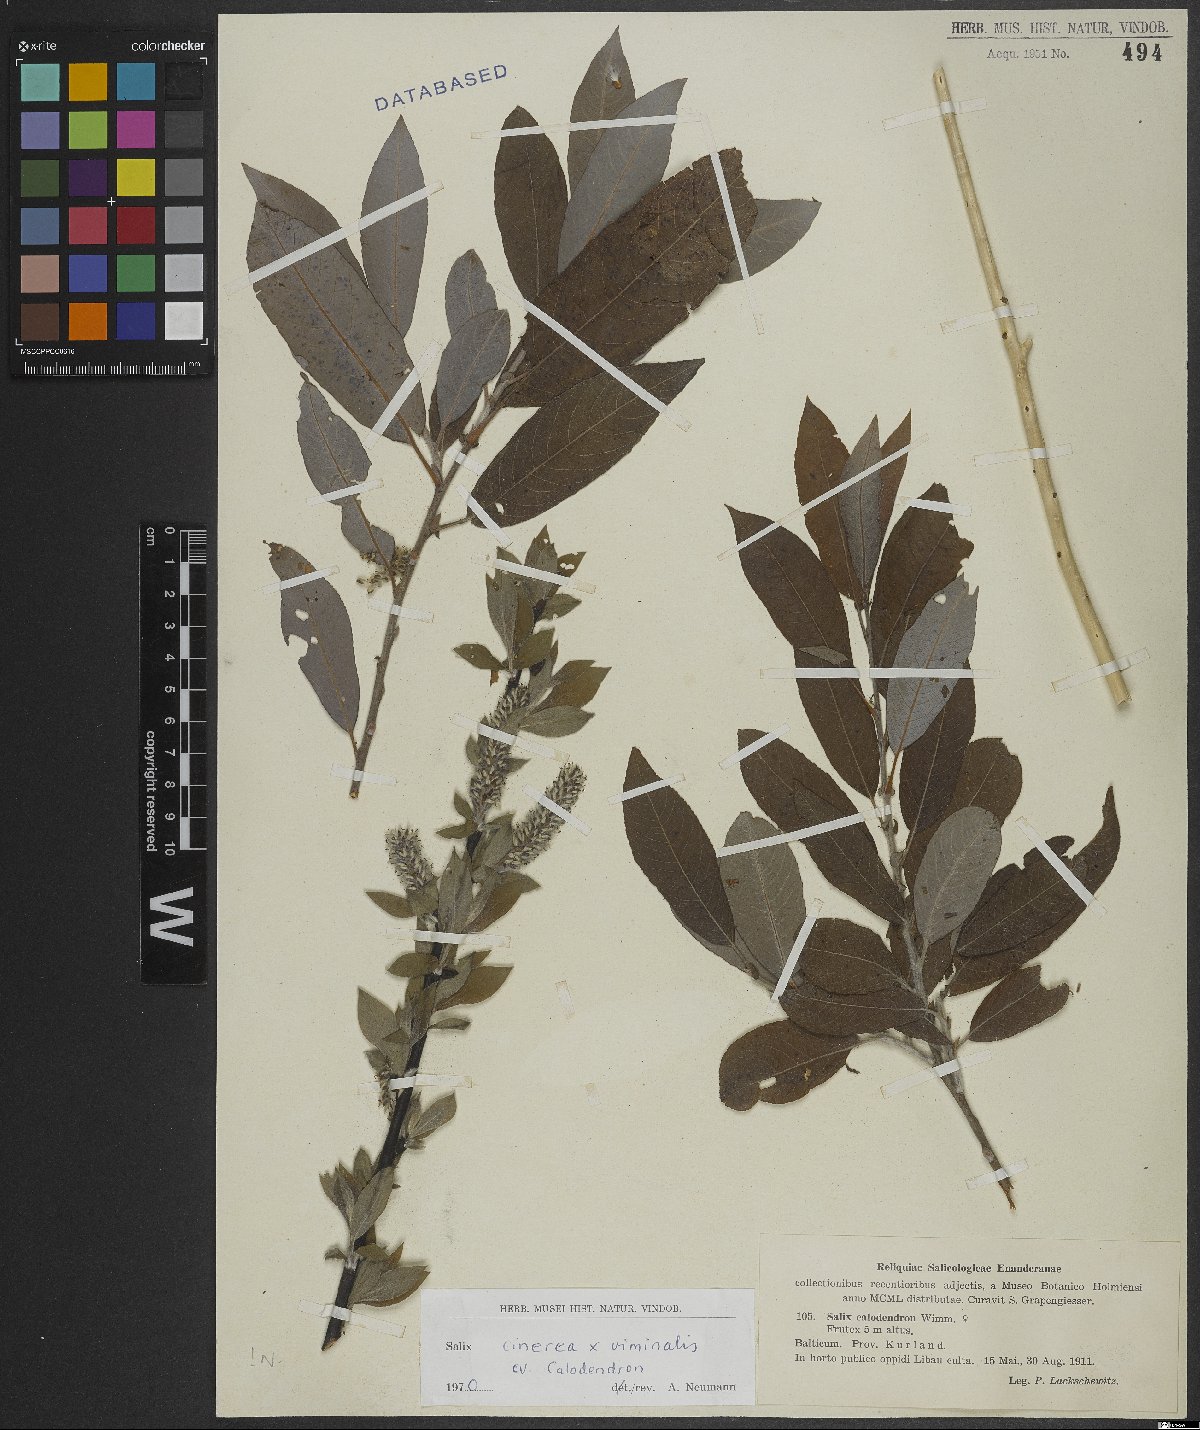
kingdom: Plantae
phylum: Tracheophyta
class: Magnoliopsida
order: Malpighiales
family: Salicaceae
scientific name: Salicaceae
